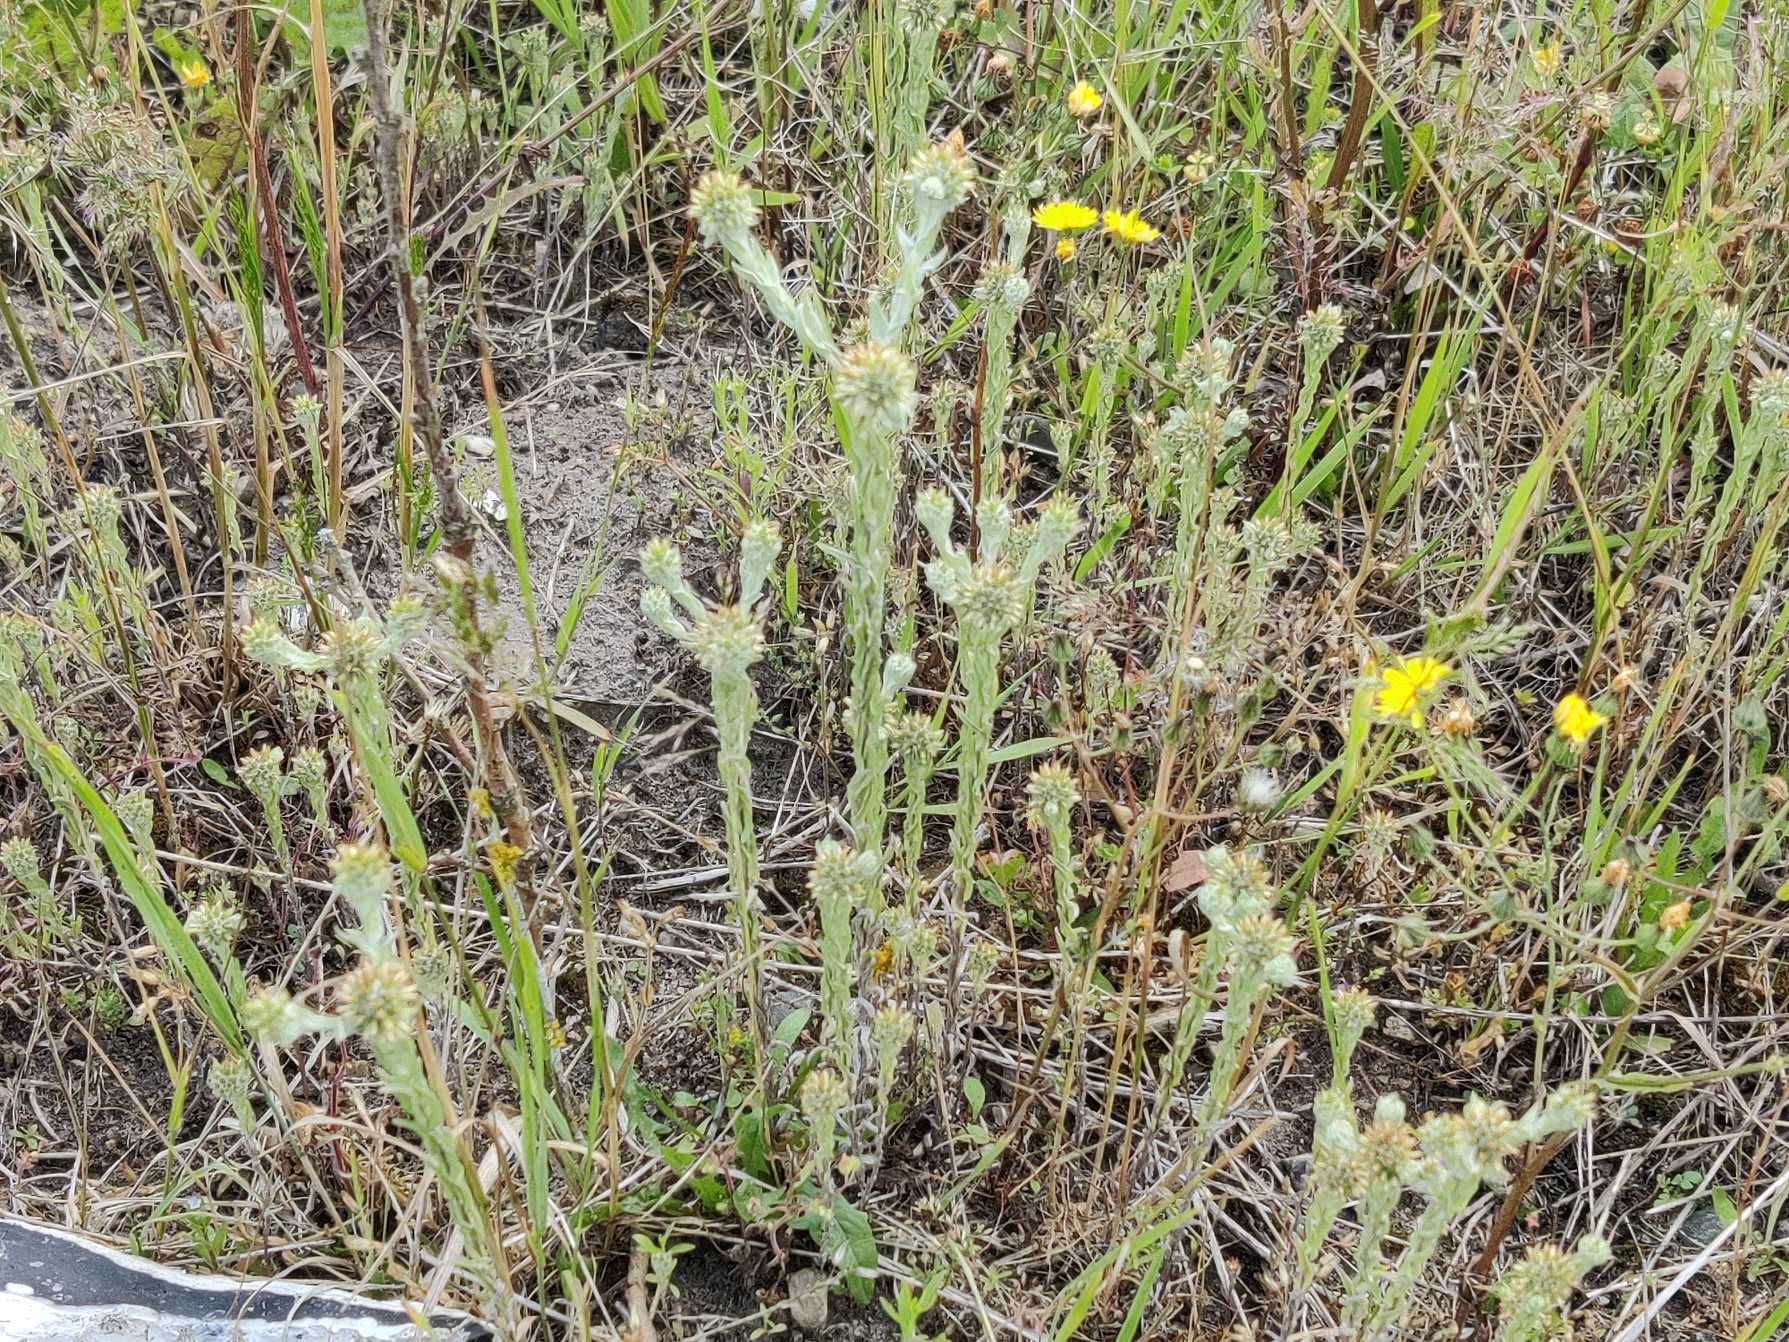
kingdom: Plantae
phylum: Tracheophyta
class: Magnoliopsida
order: Asterales
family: Asteraceae
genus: Filago
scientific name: Filago germanica
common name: Kugle-museurt
